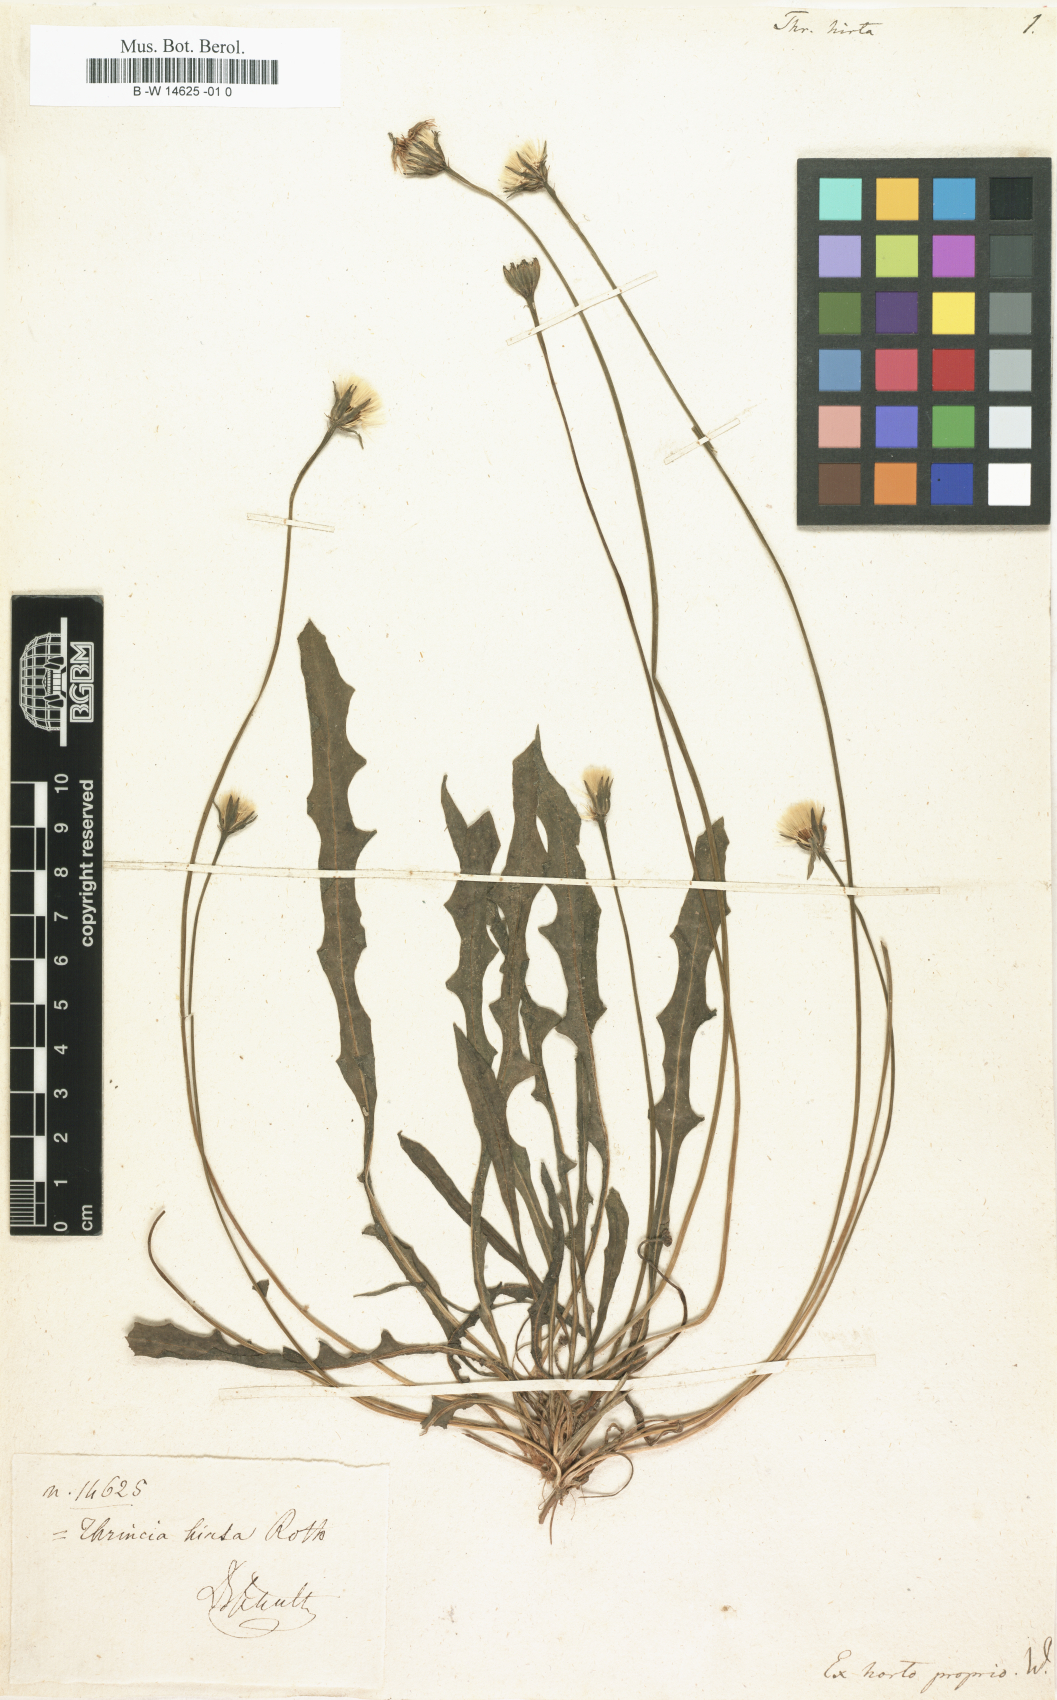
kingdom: Plantae
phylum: Tracheophyta
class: Magnoliopsida
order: Asterales
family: Asteraceae
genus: Thrincia
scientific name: Thrincia saxatilis
